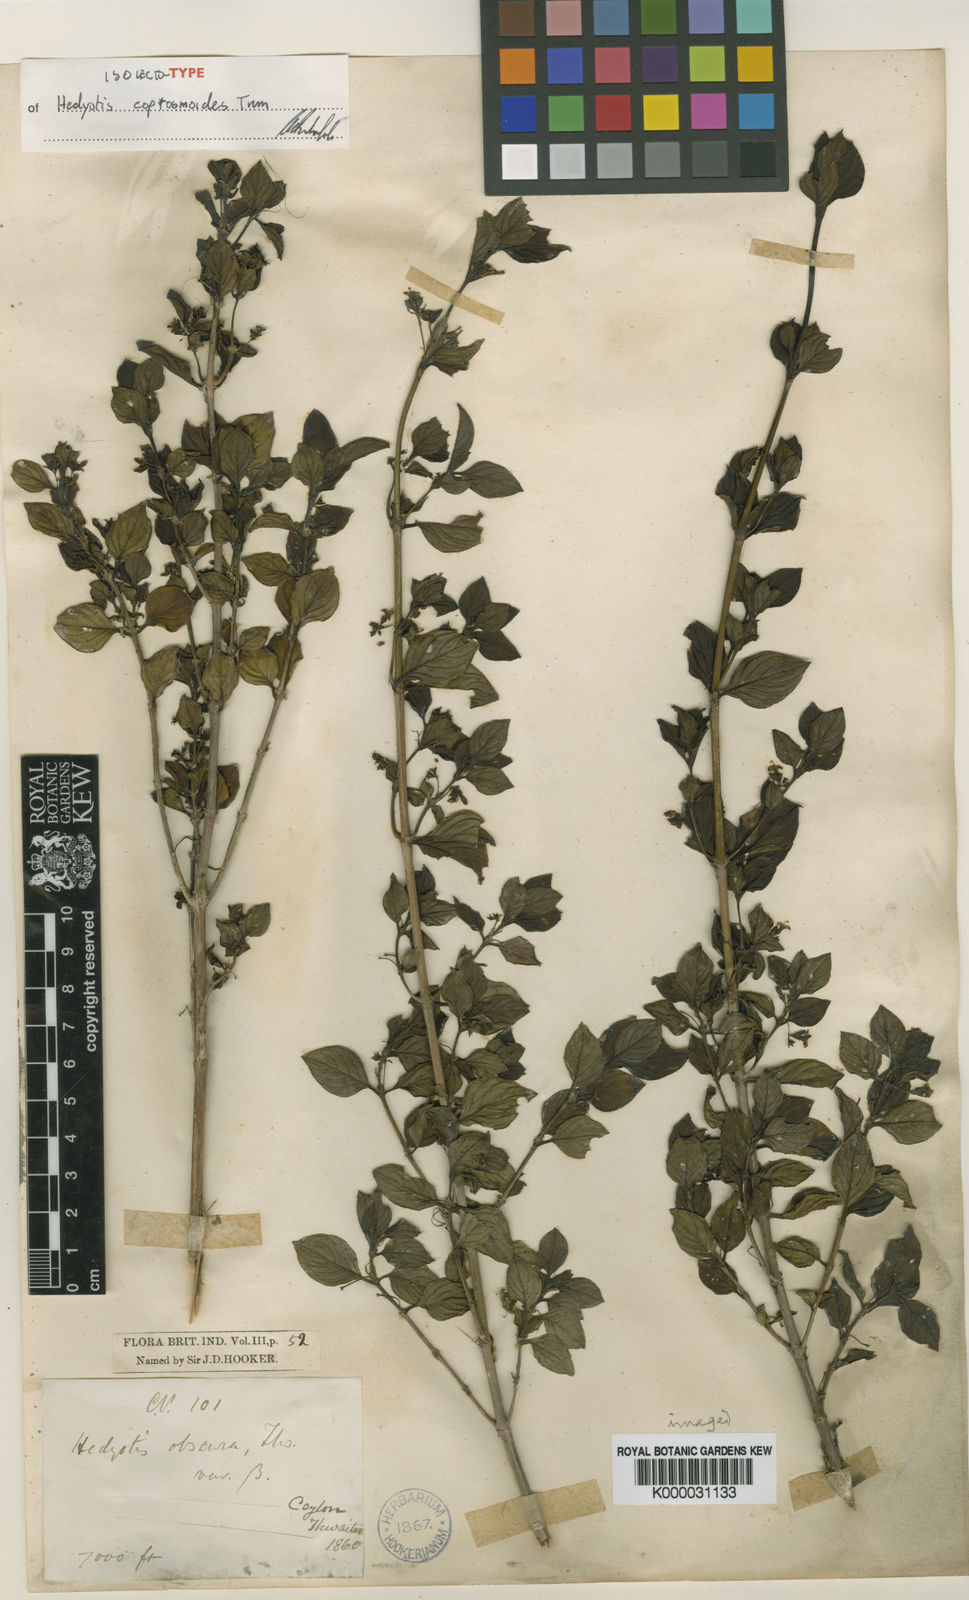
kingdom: Plantae
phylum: Tracheophyta
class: Magnoliopsida
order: Gentianales
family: Rubiaceae
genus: Hedyotis
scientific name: Hedyotis coprosmoides
